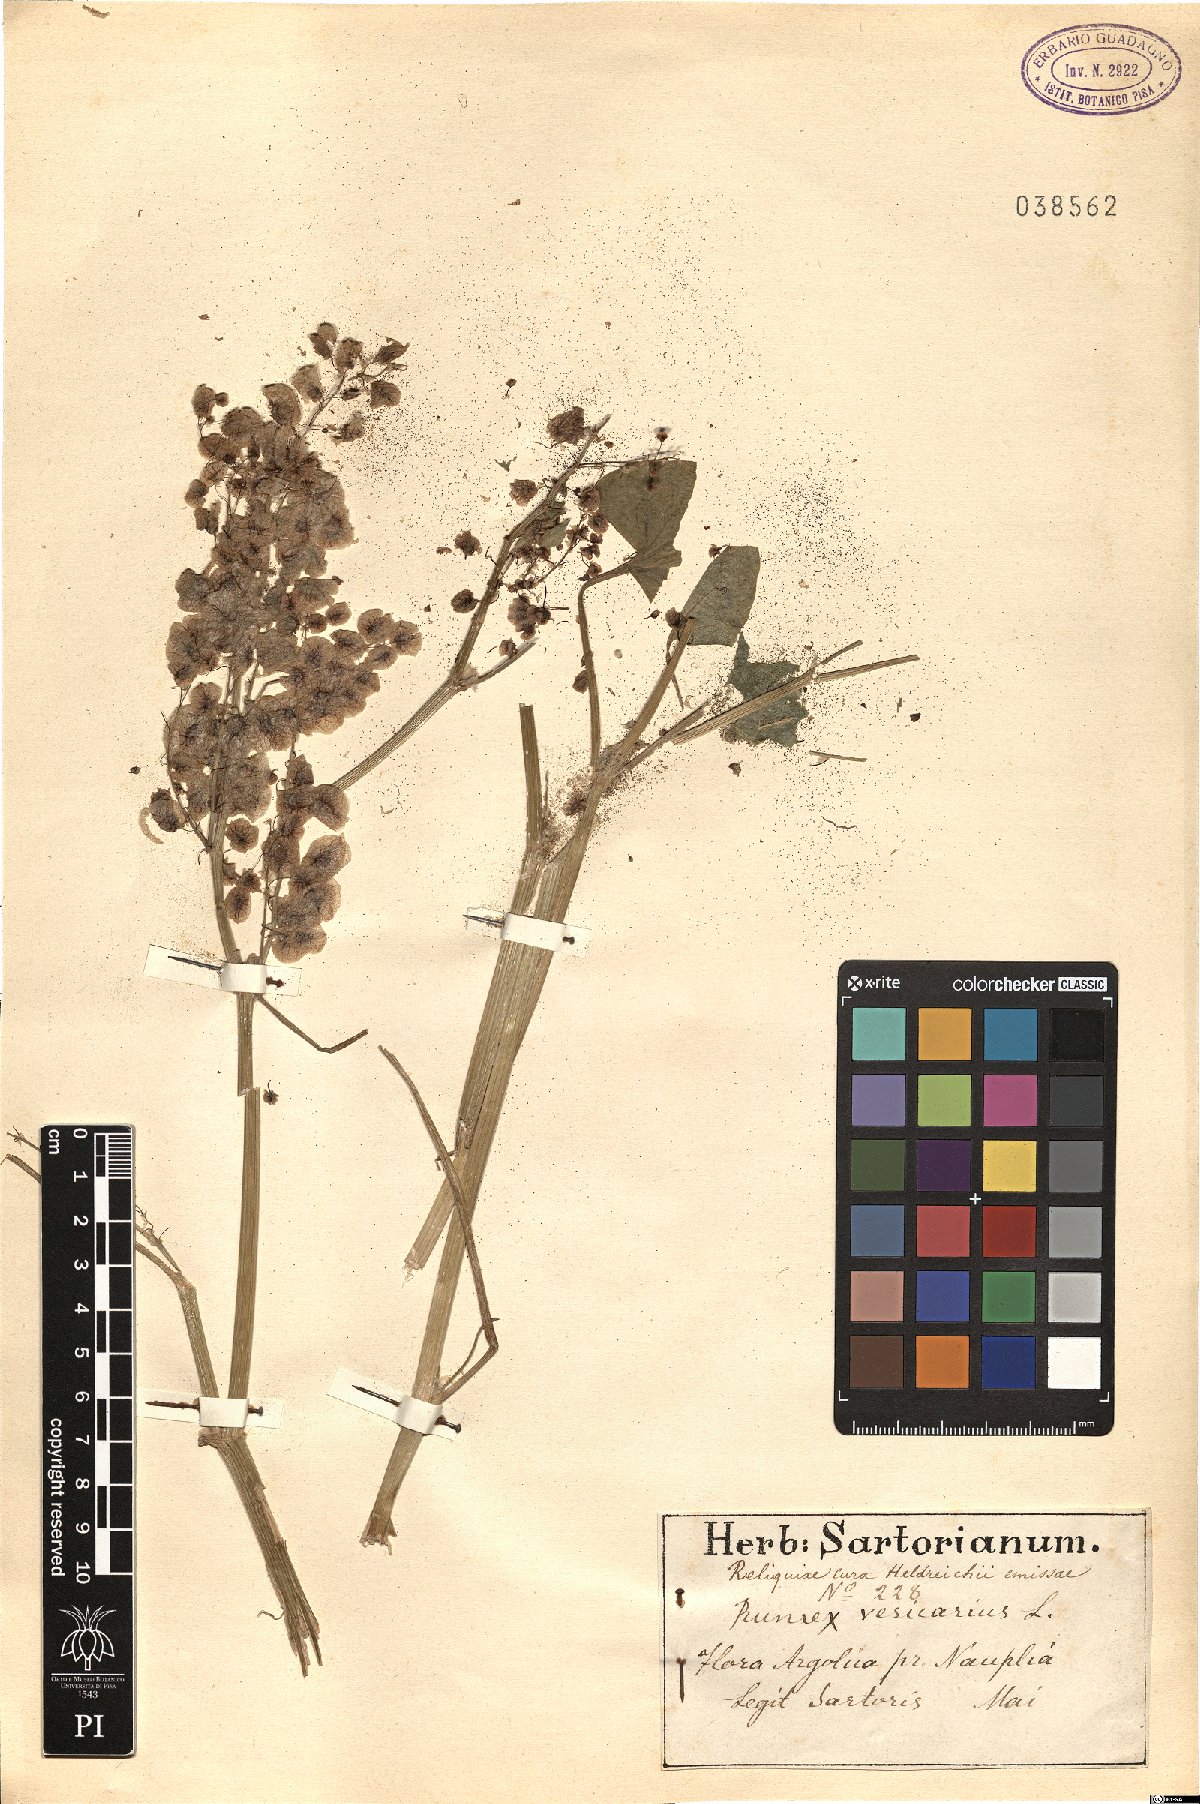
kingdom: Plantae
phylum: Tracheophyta
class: Magnoliopsida
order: Caryophyllales
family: Polygonaceae
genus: Rumex
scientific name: Rumex vesicarius
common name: Bladder dock
